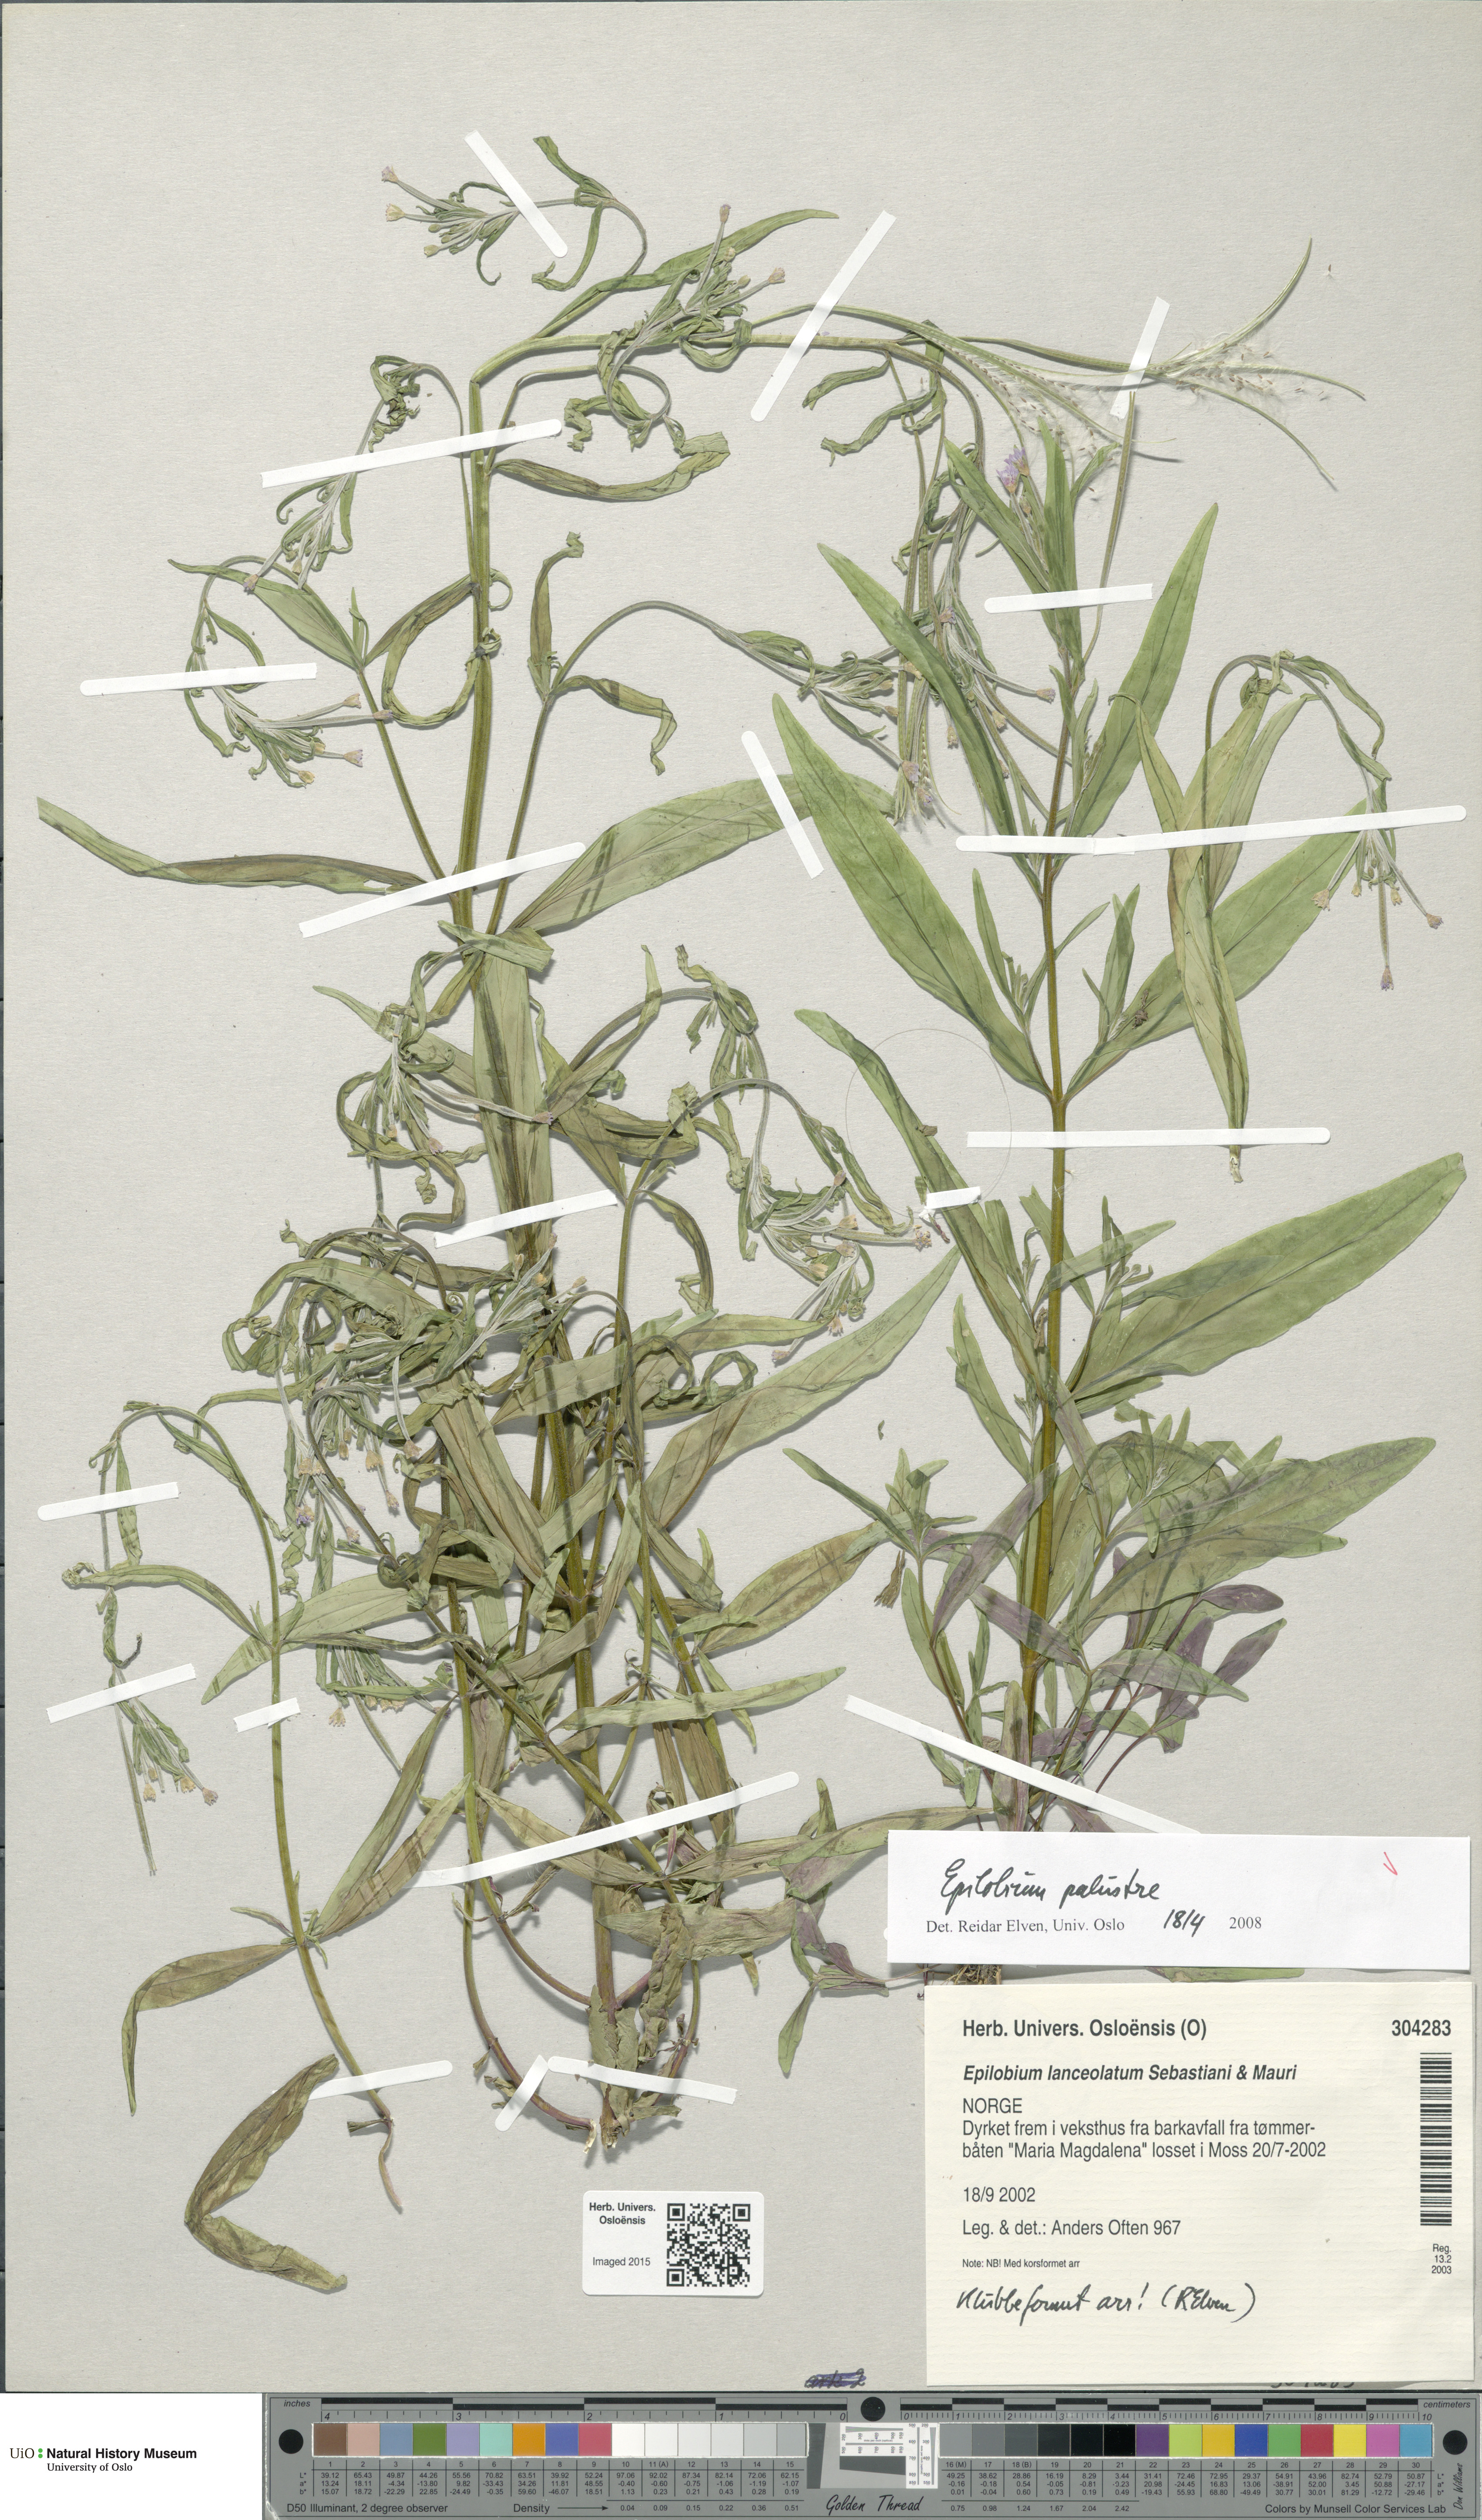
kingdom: Plantae
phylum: Tracheophyta
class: Magnoliopsida
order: Myrtales
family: Onagraceae
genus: Epilobium
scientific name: Epilobium palustre
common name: Marsh willowherb
